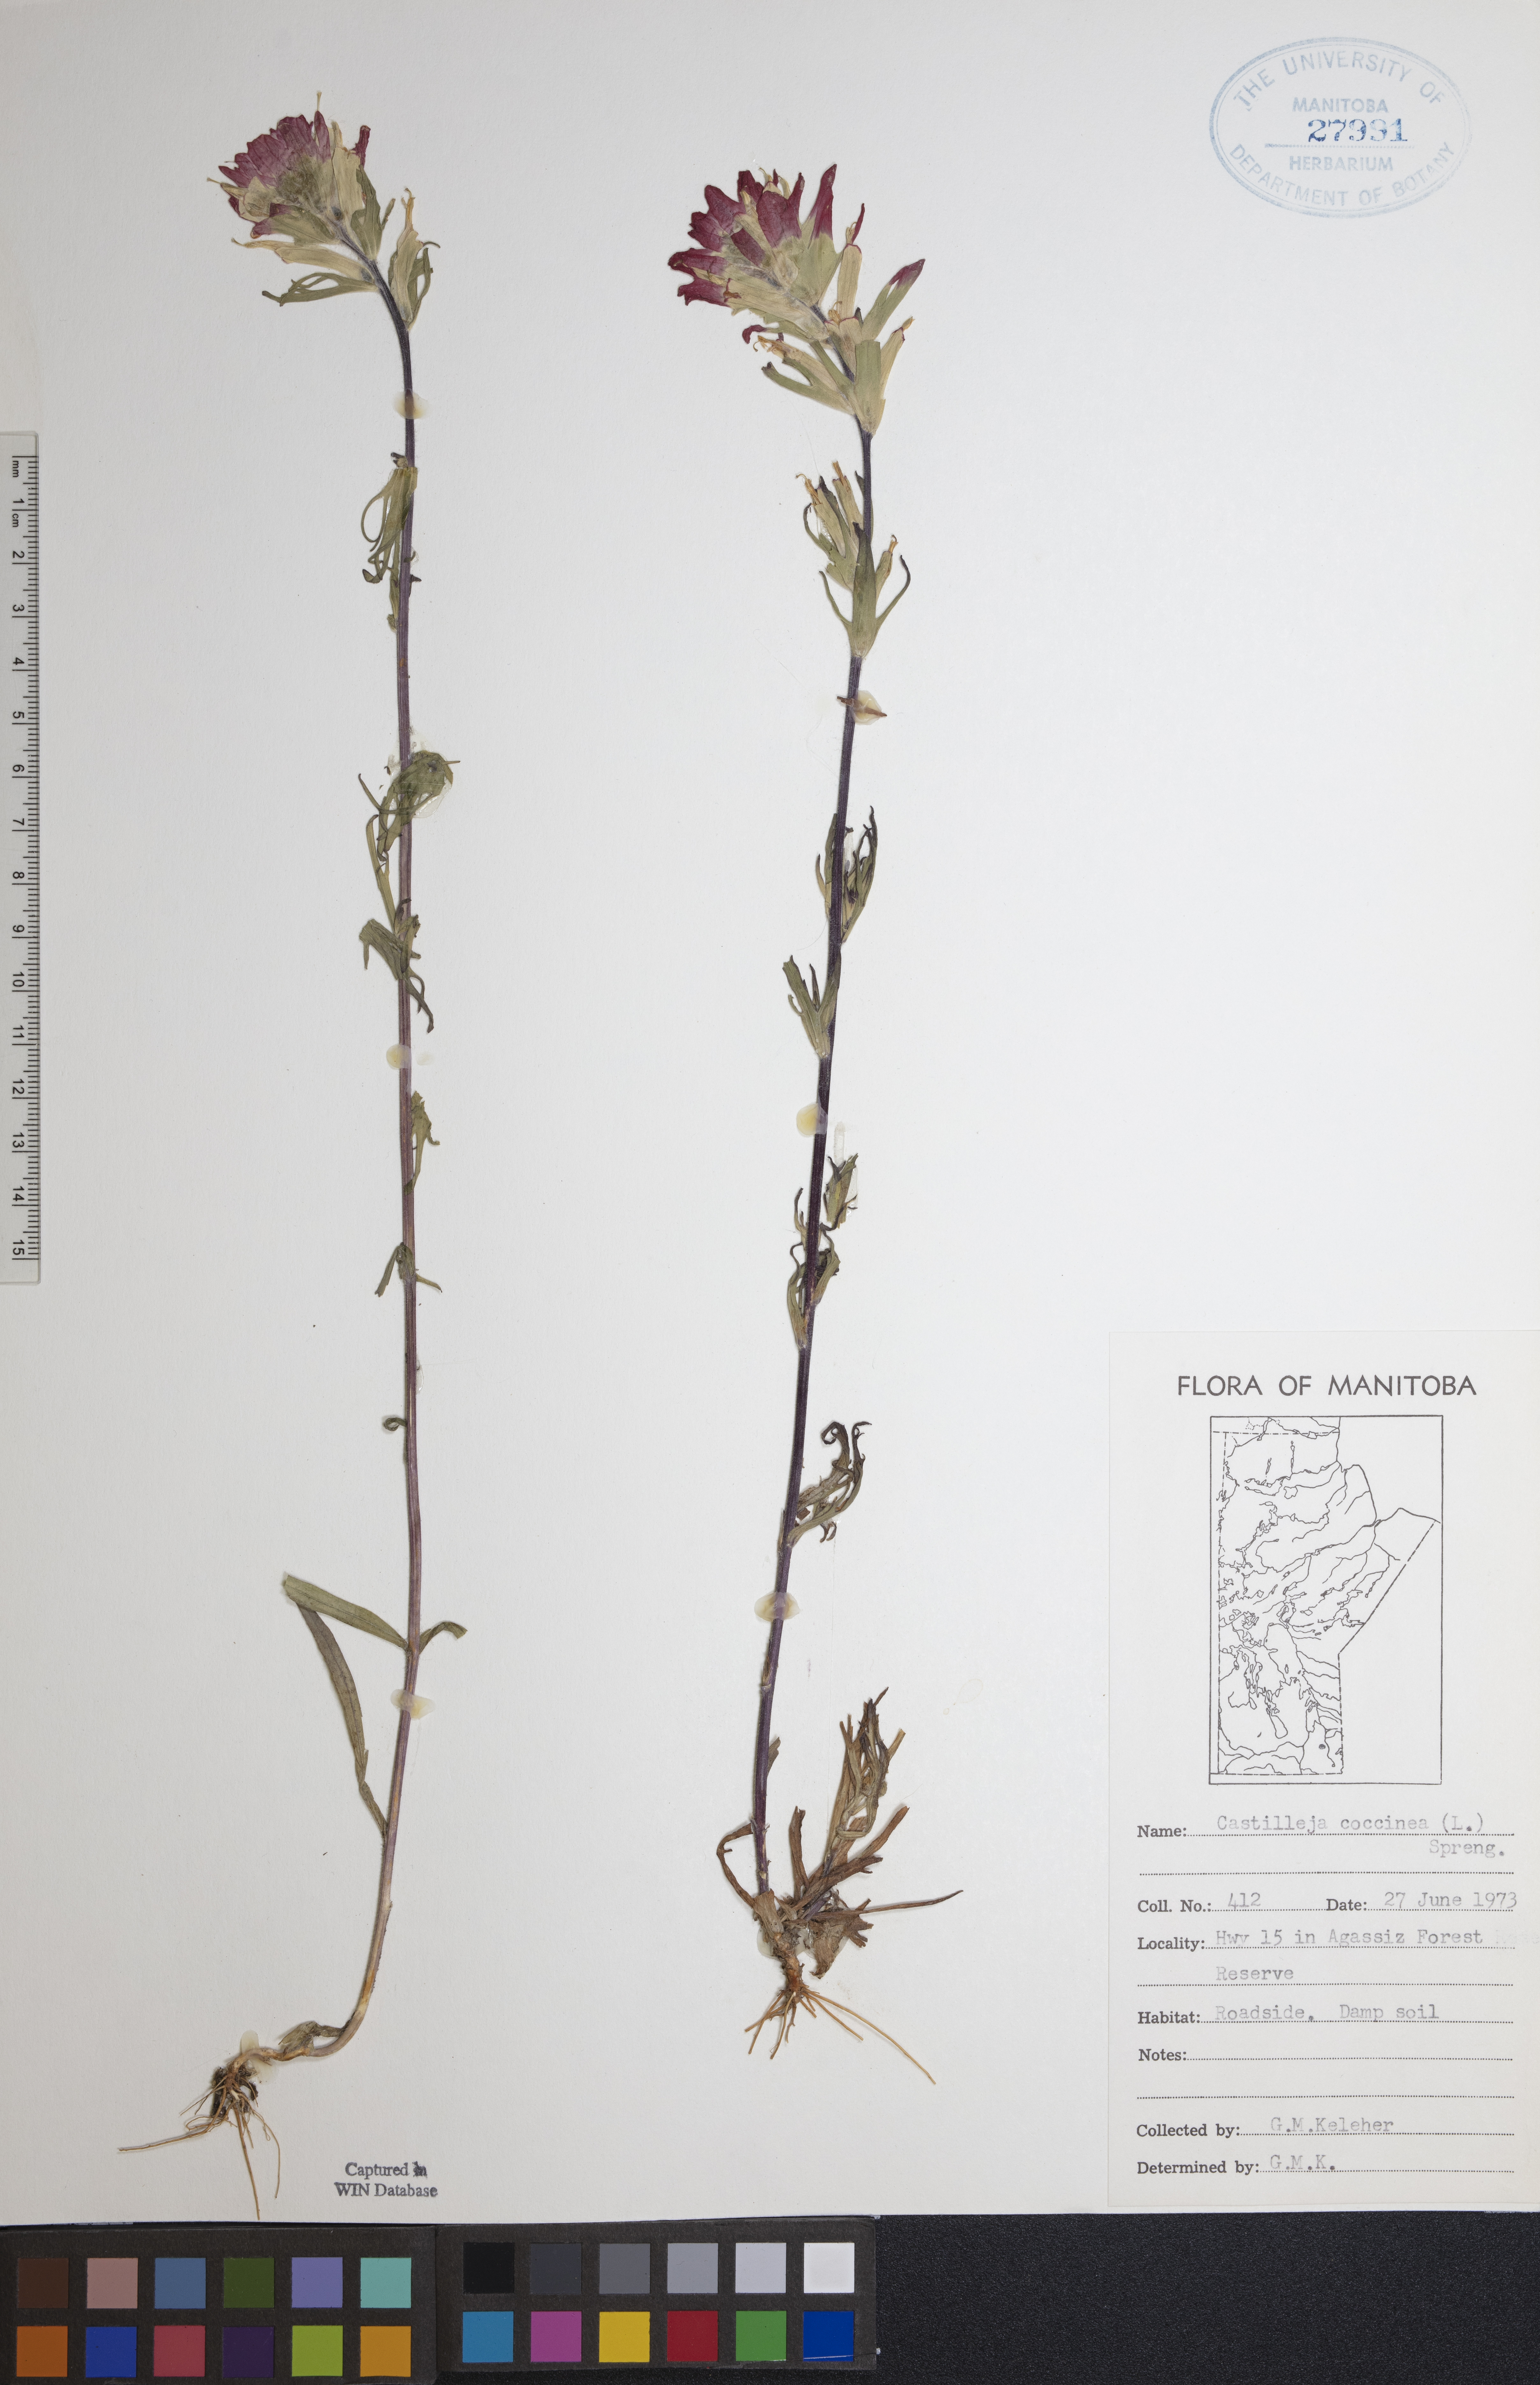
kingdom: Plantae
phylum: Tracheophyta
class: Magnoliopsida
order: Lamiales
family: Orobanchaceae
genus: Castilleja
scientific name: Castilleja coccinea
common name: Scarlet paintbrush
